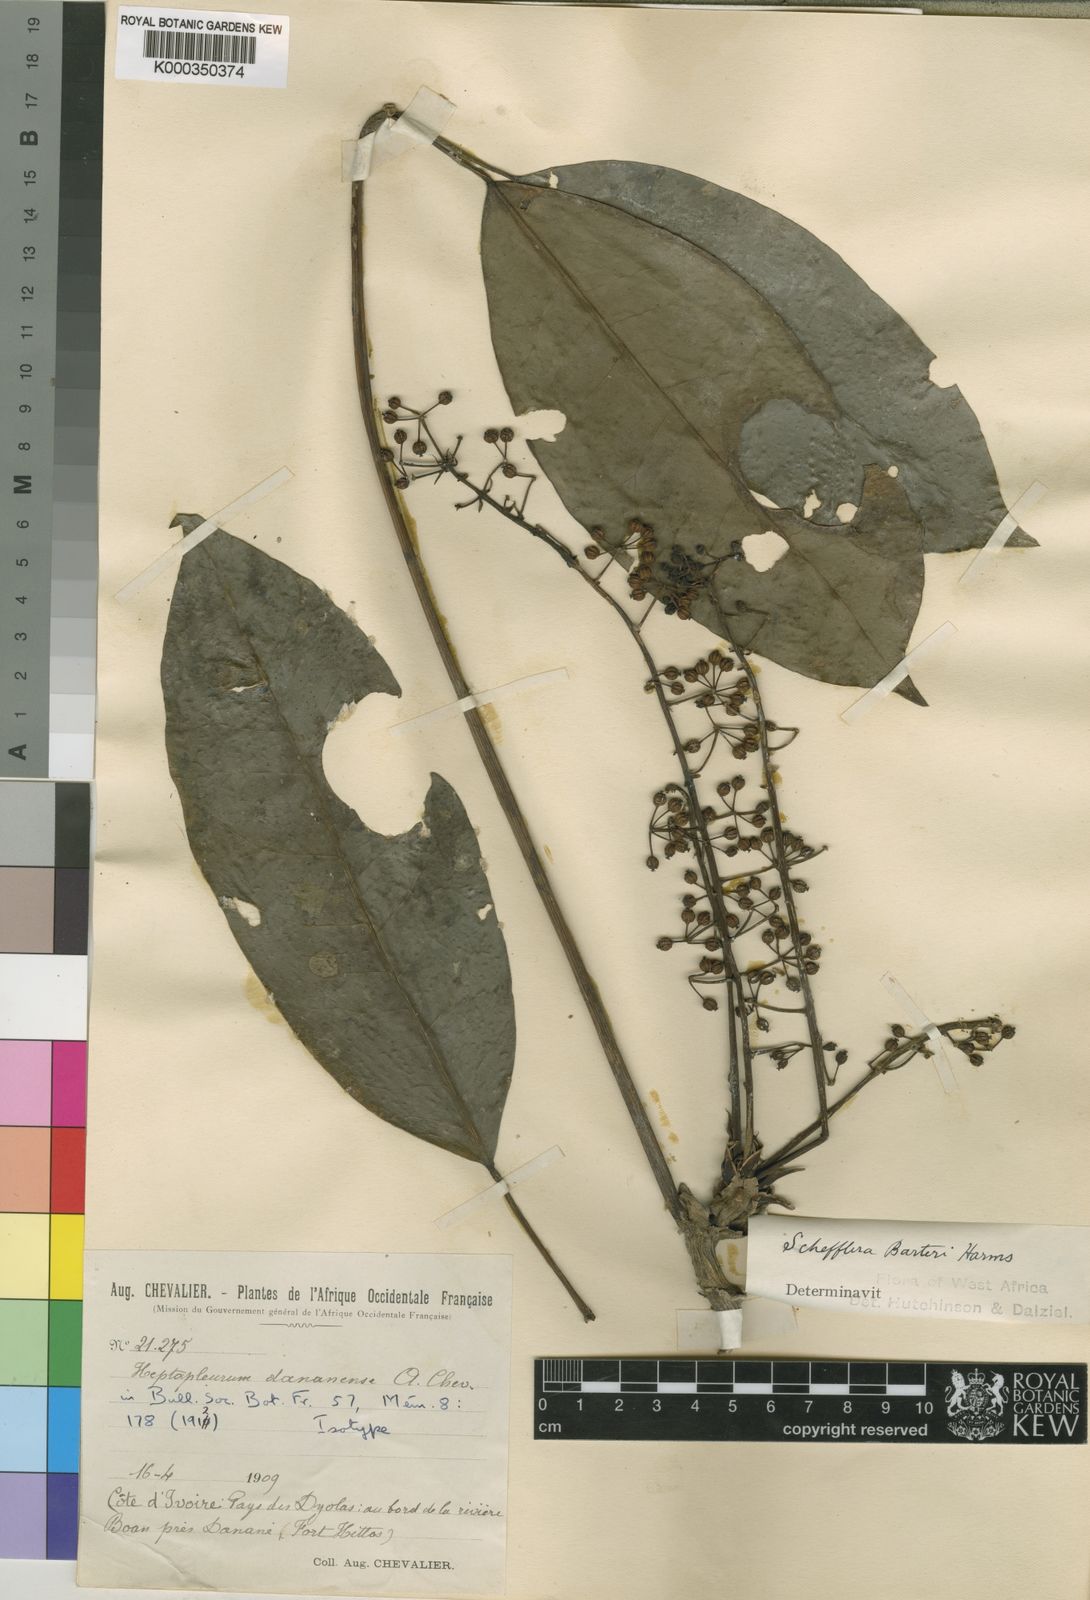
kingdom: Plantae
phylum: Tracheophyta
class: Magnoliopsida
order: Apiales
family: Araliaceae
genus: Astropanax
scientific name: Astropanax barteri
